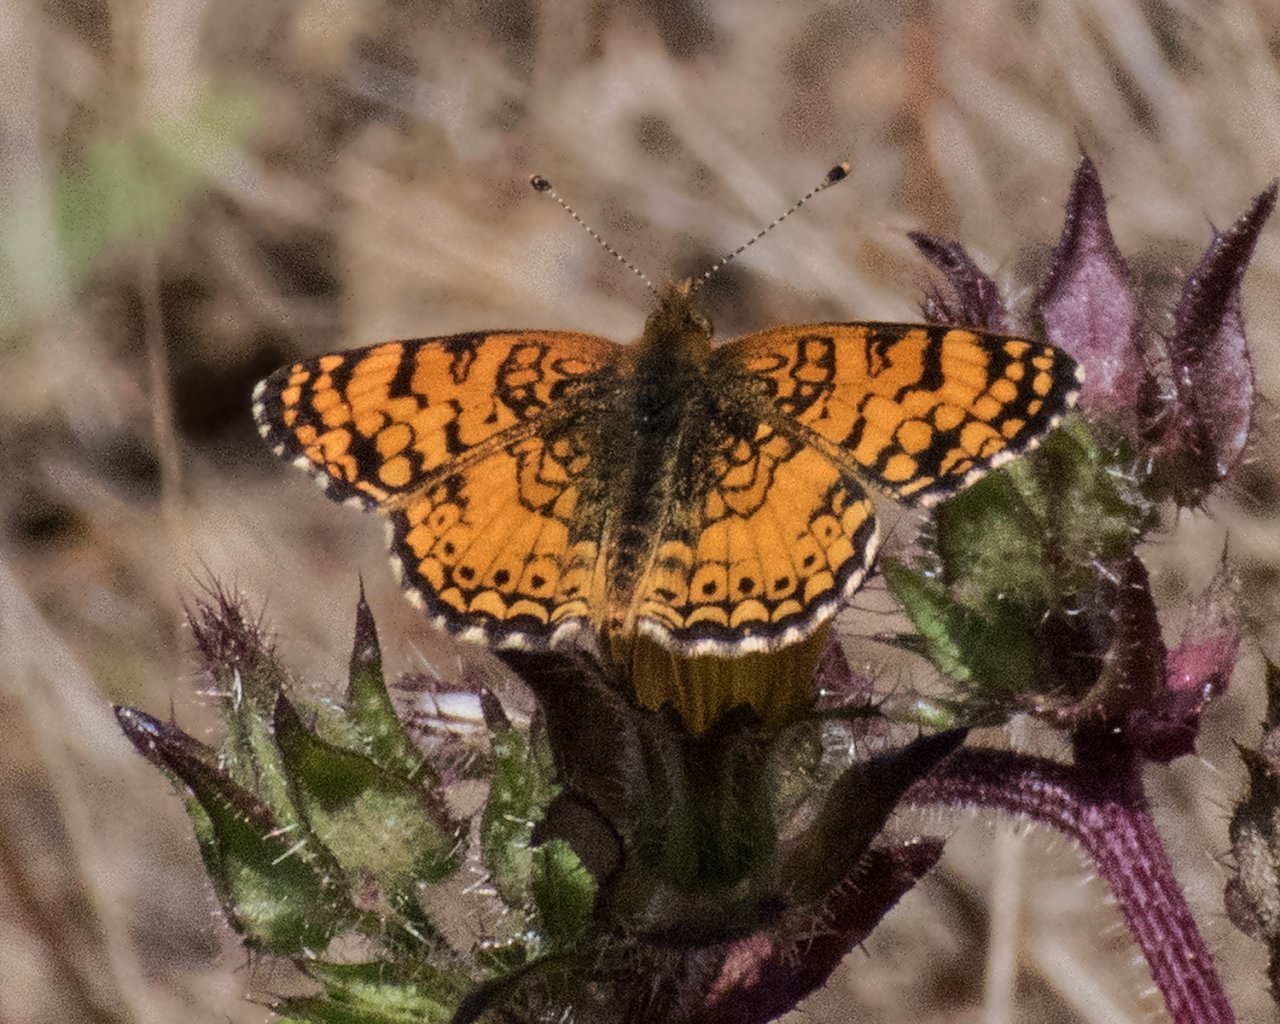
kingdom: Animalia
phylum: Arthropoda
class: Insecta
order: Lepidoptera
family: Nymphalidae
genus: Eresia
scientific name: Eresia aveyrona
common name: Mylitta Crescent
